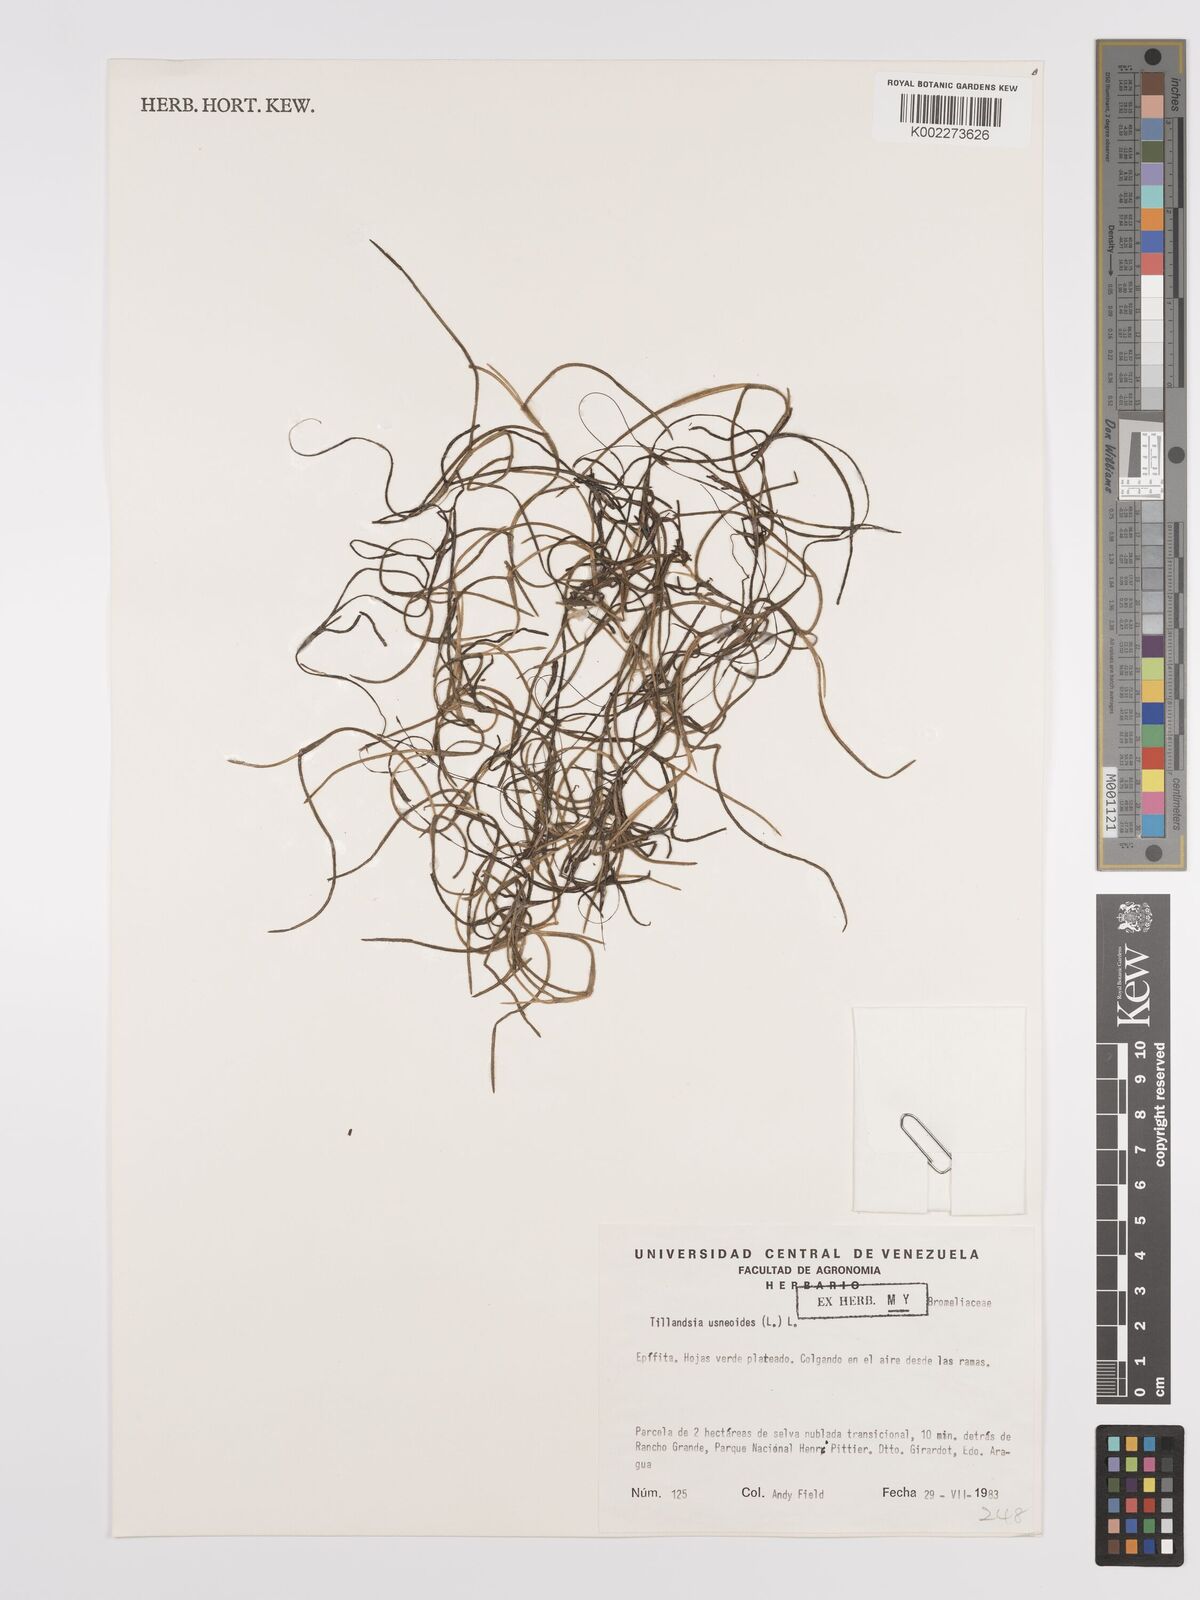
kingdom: Plantae
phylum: Tracheophyta
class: Liliopsida
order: Poales
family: Bromeliaceae
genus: Tillandsia
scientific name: Tillandsia usneoides
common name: Spanish moss
